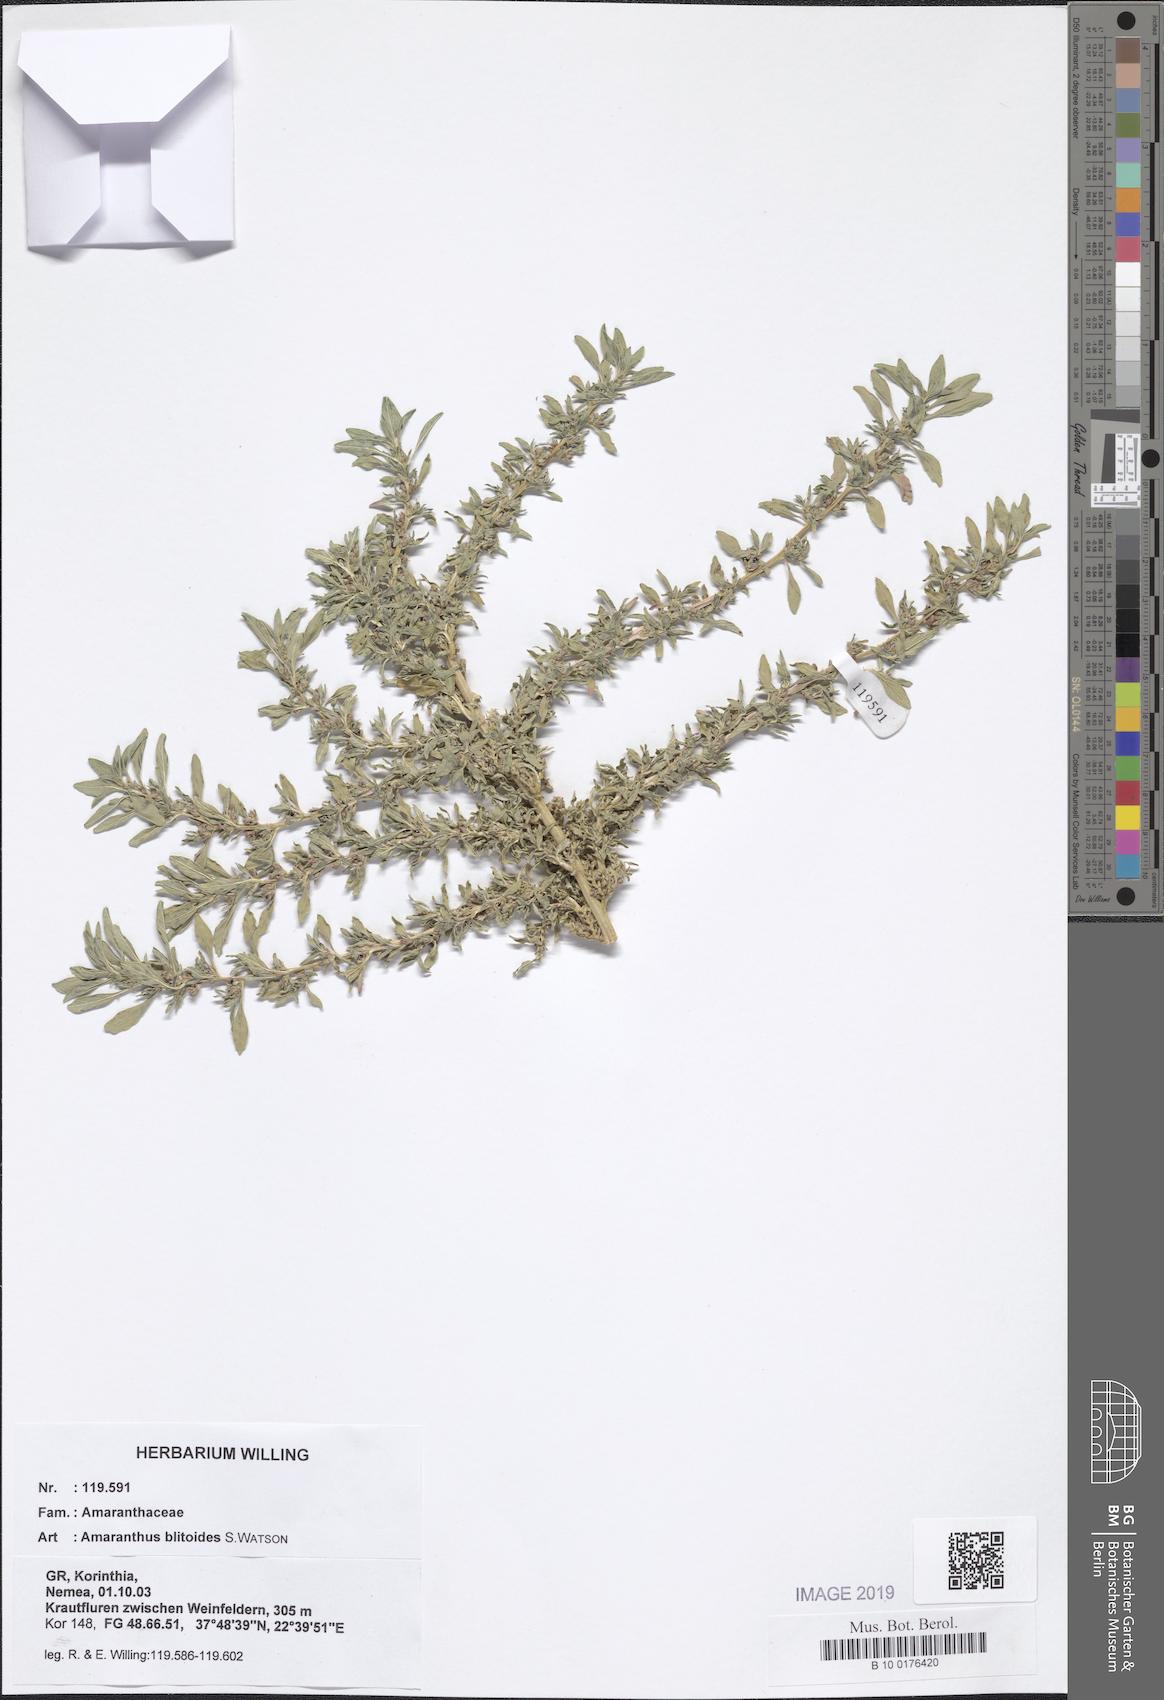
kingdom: Plantae
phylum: Tracheophyta
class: Magnoliopsida
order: Caryophyllales
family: Amaranthaceae
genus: Amaranthus
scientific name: Amaranthus blitoides
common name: Prostrate pigweed
